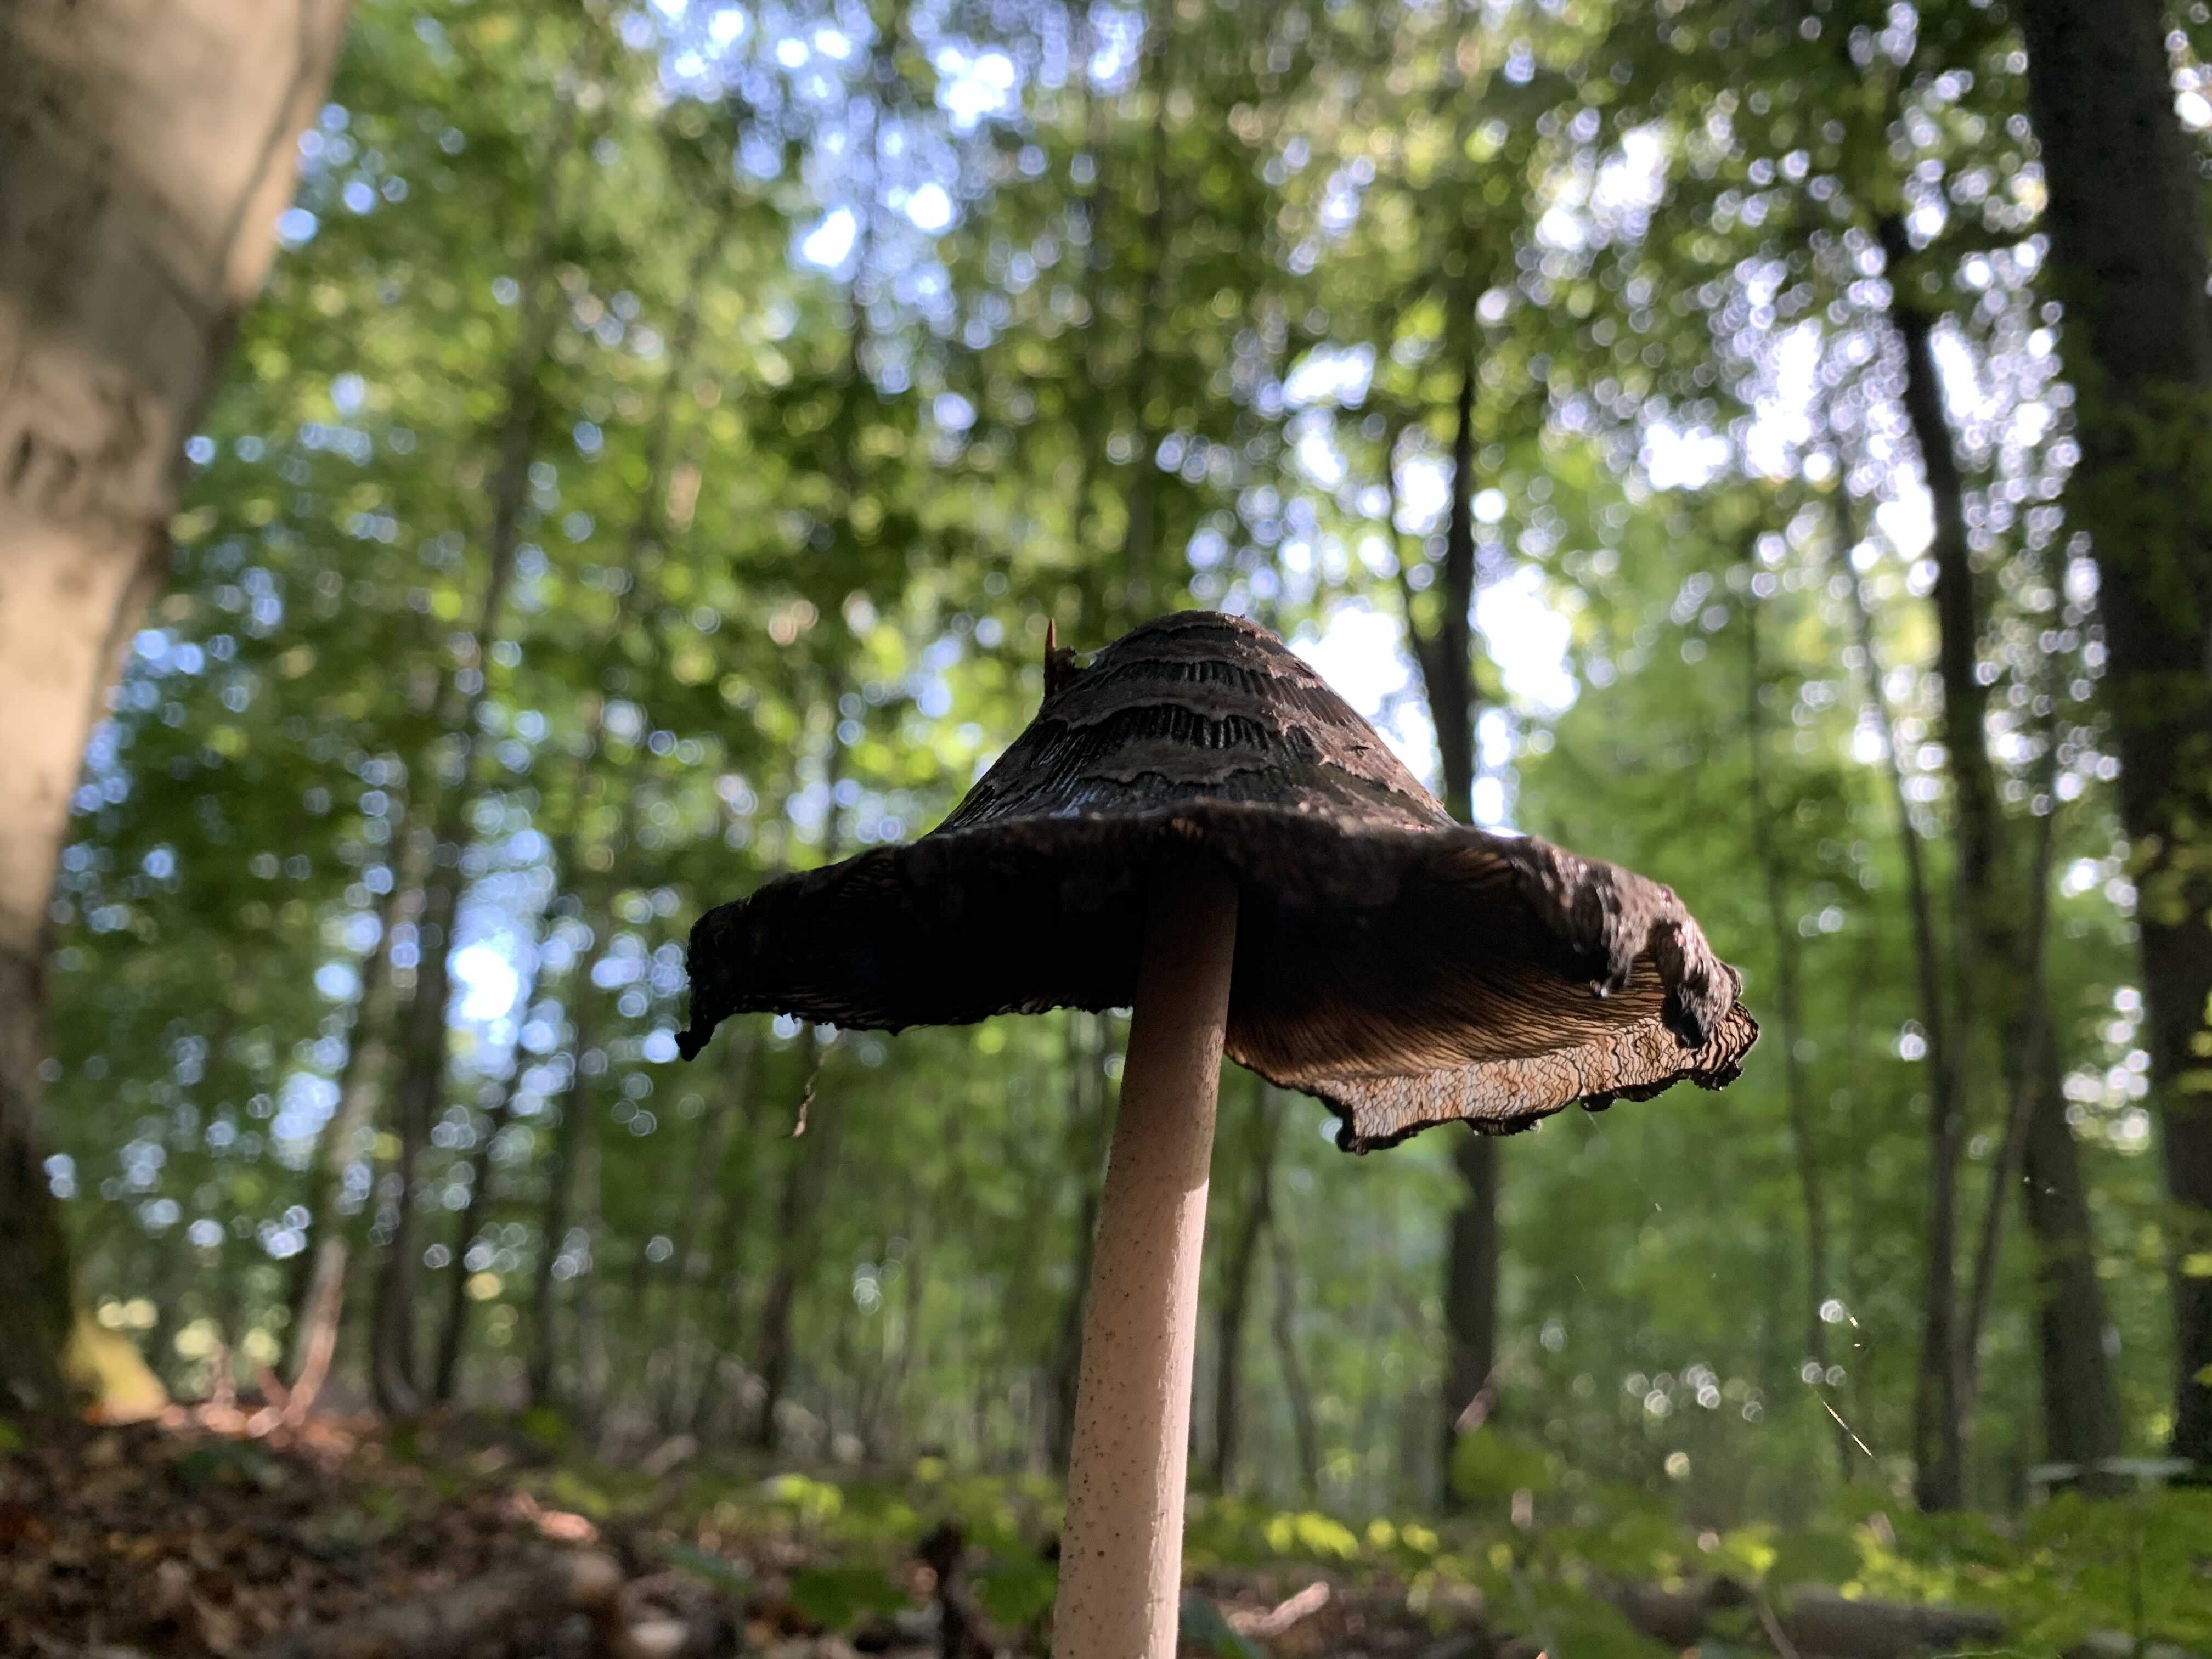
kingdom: Fungi
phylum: Basidiomycota
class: Agaricomycetes
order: Agaricales
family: Psathyrellaceae
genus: Coprinopsis
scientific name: Coprinopsis picacea
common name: skade-blækhat
